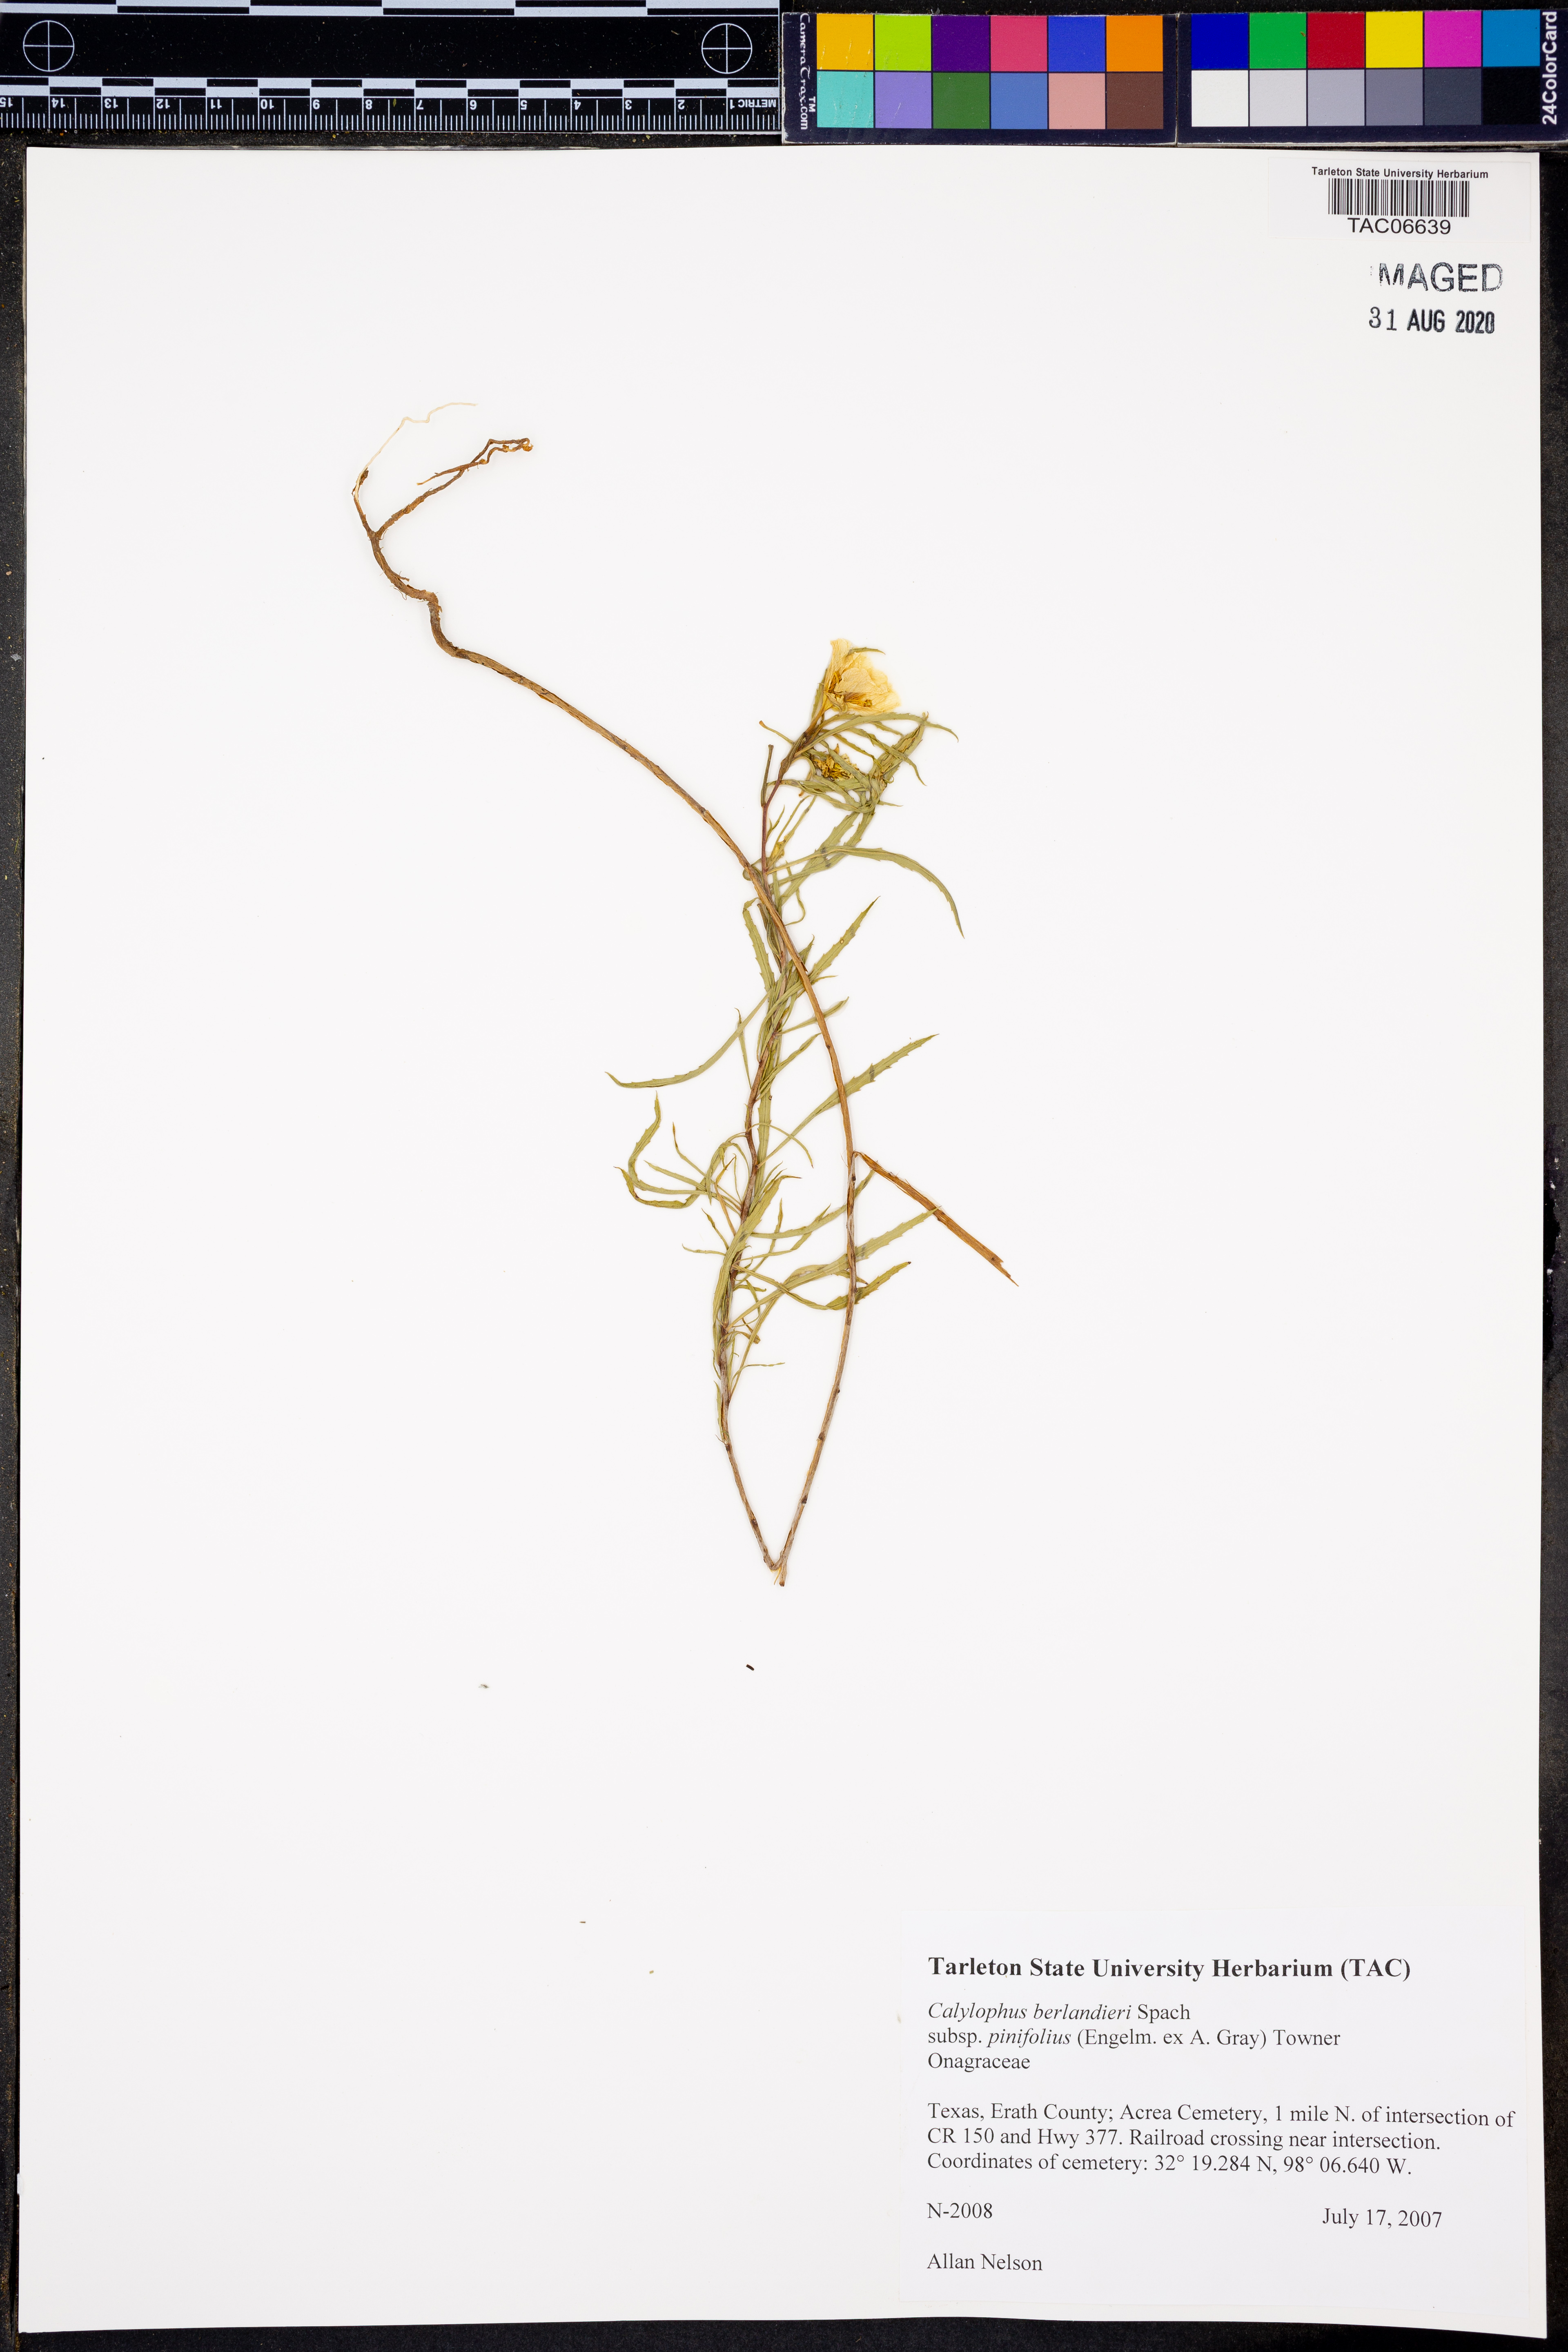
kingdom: Plantae
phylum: Tracheophyta
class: Magnoliopsida
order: Myrtales
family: Onagraceae
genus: Oenothera
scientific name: Oenothera capillifolia
